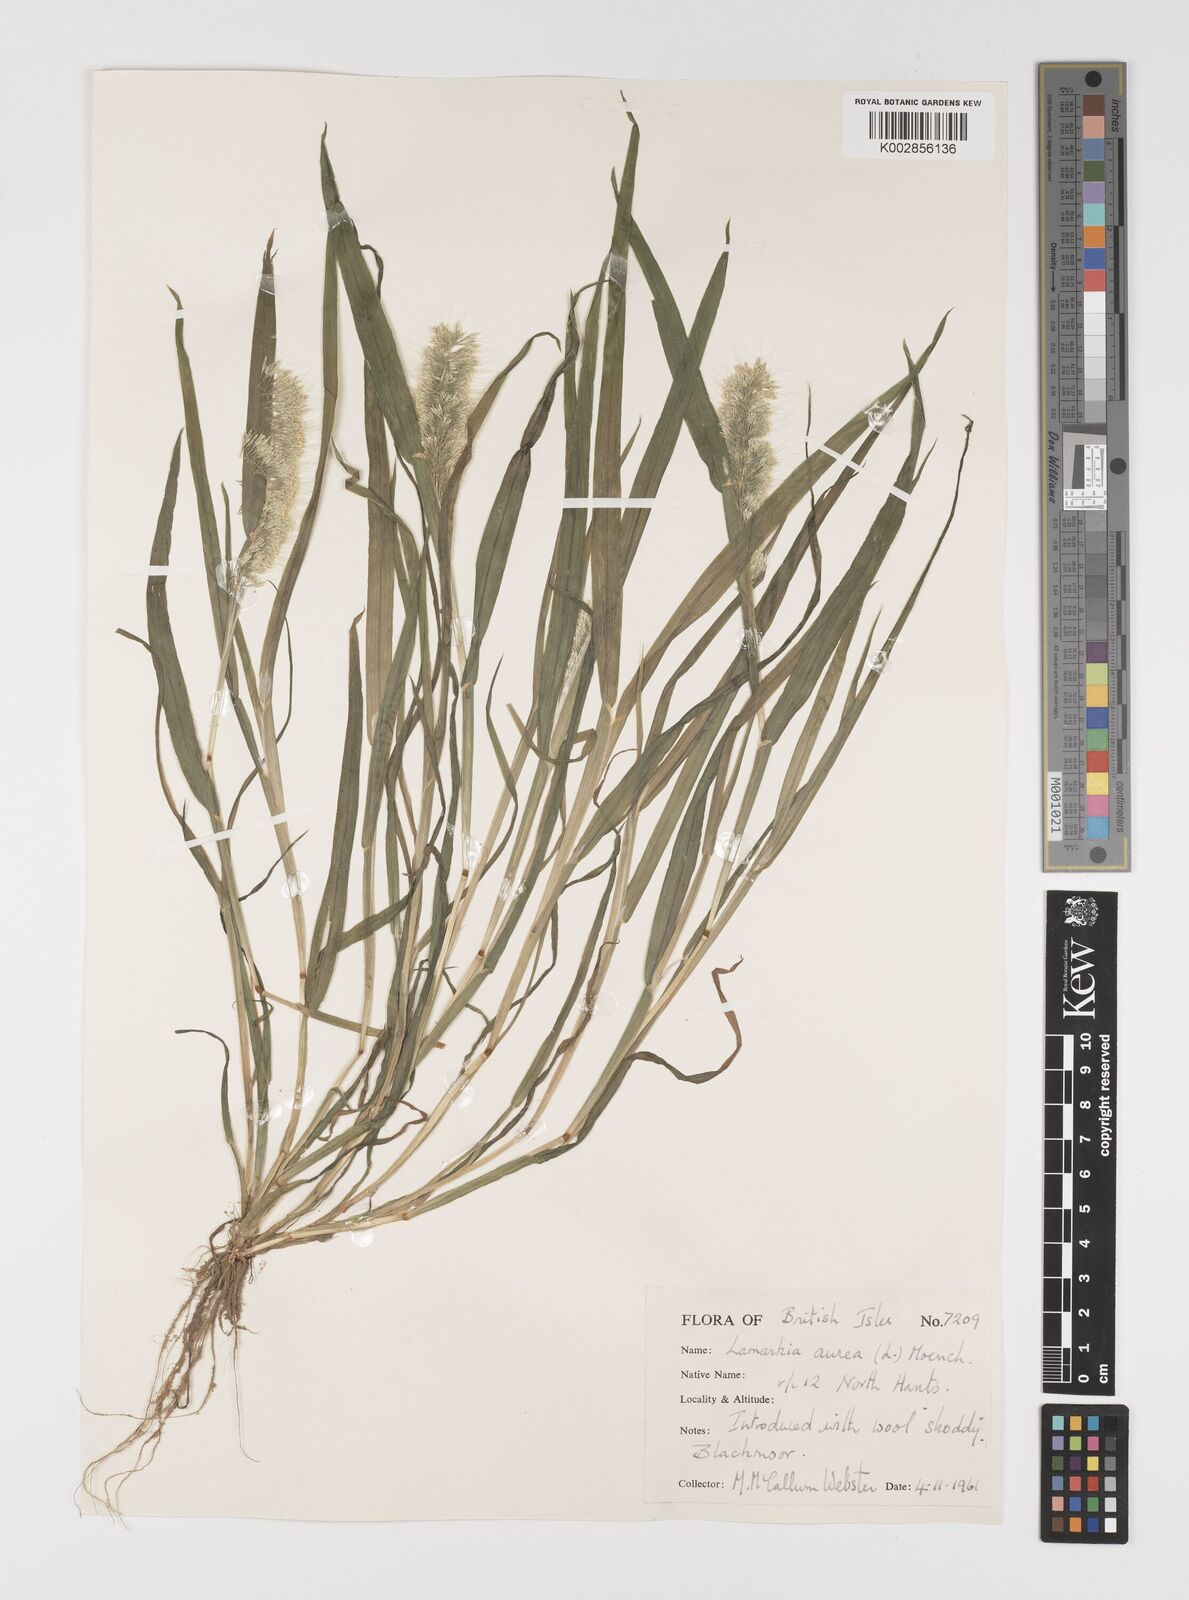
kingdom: Plantae
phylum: Tracheophyta
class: Liliopsida
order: Poales
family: Poaceae
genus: Lamarckia
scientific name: Lamarckia aurea
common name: Golden dog's-tail
